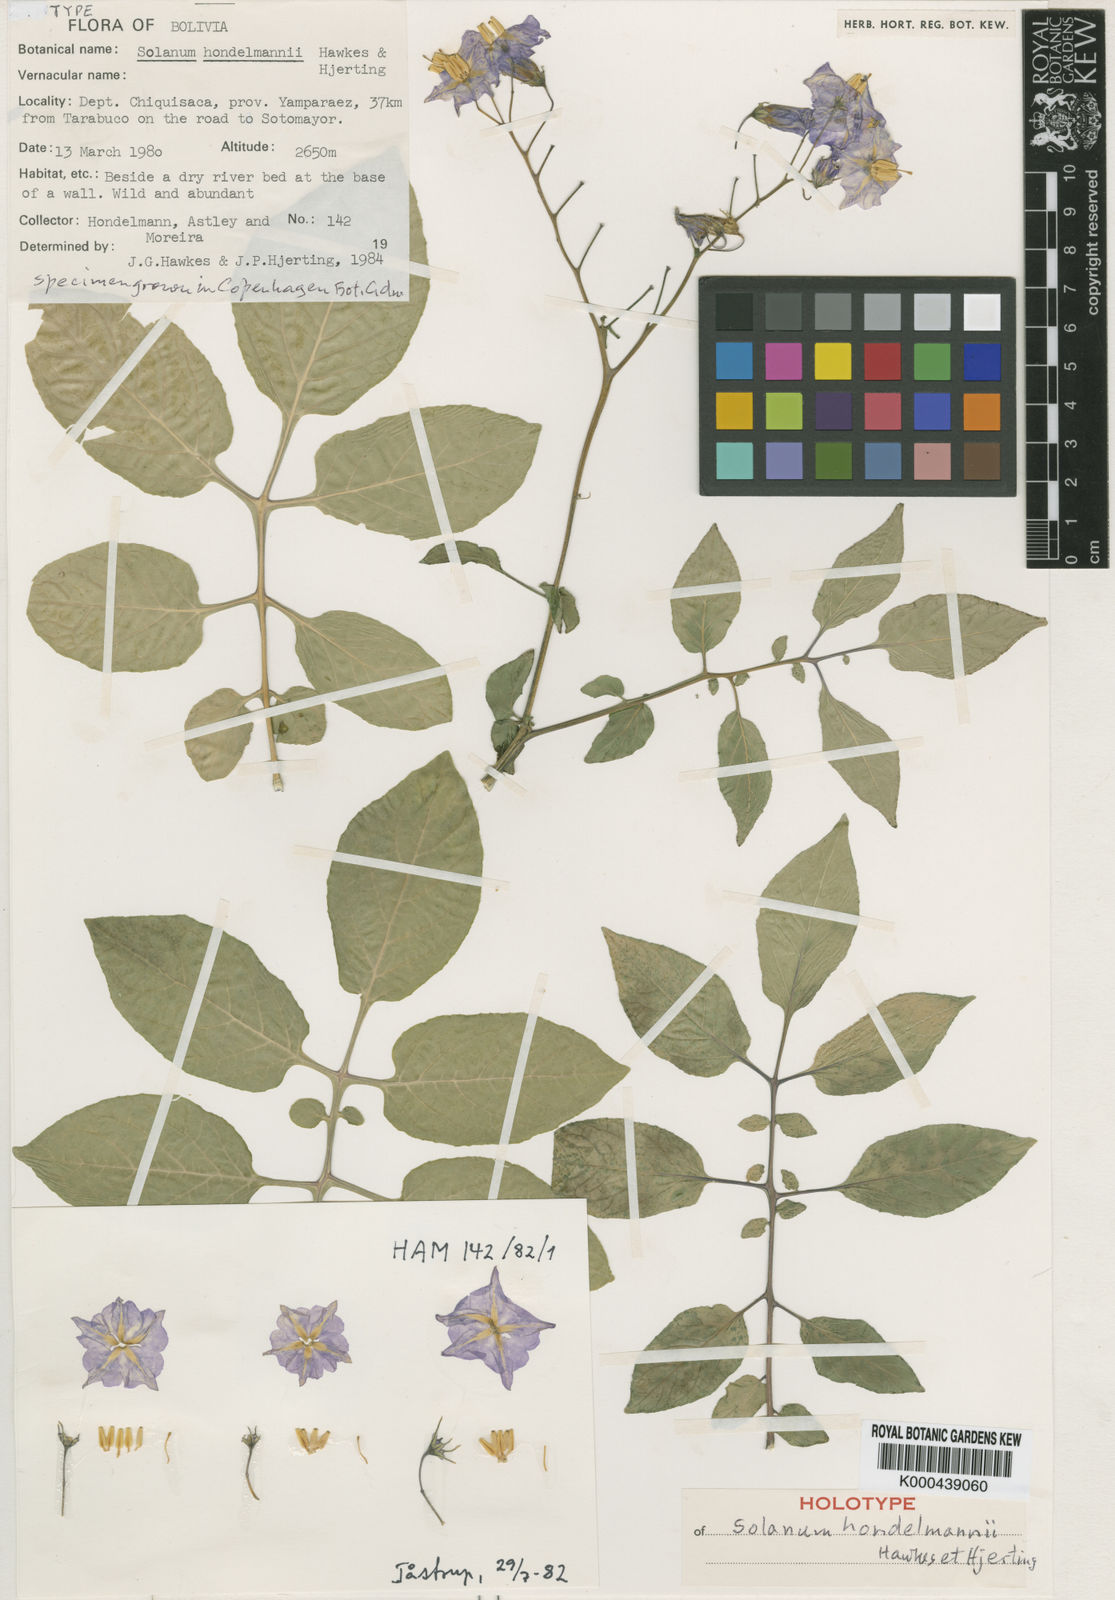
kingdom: Plantae
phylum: Tracheophyta
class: Magnoliopsida
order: Solanales
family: Solanaceae
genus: Solanum
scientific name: Solanum brevicaule
